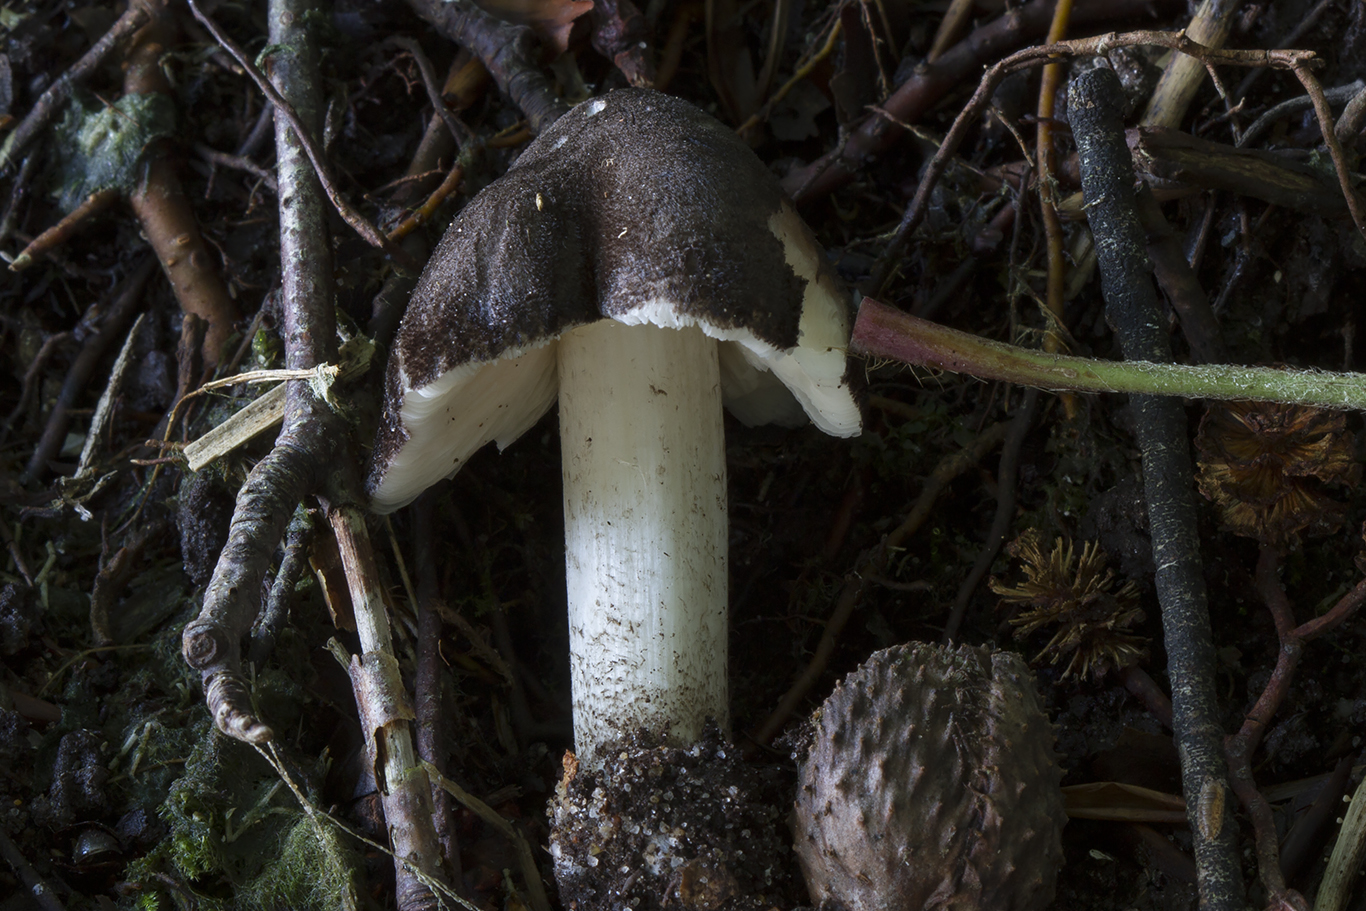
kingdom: Fungi
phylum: Basidiomycota
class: Agaricomycetes
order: Agaricales
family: Pluteaceae
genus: Pluteus
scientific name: Pluteus
